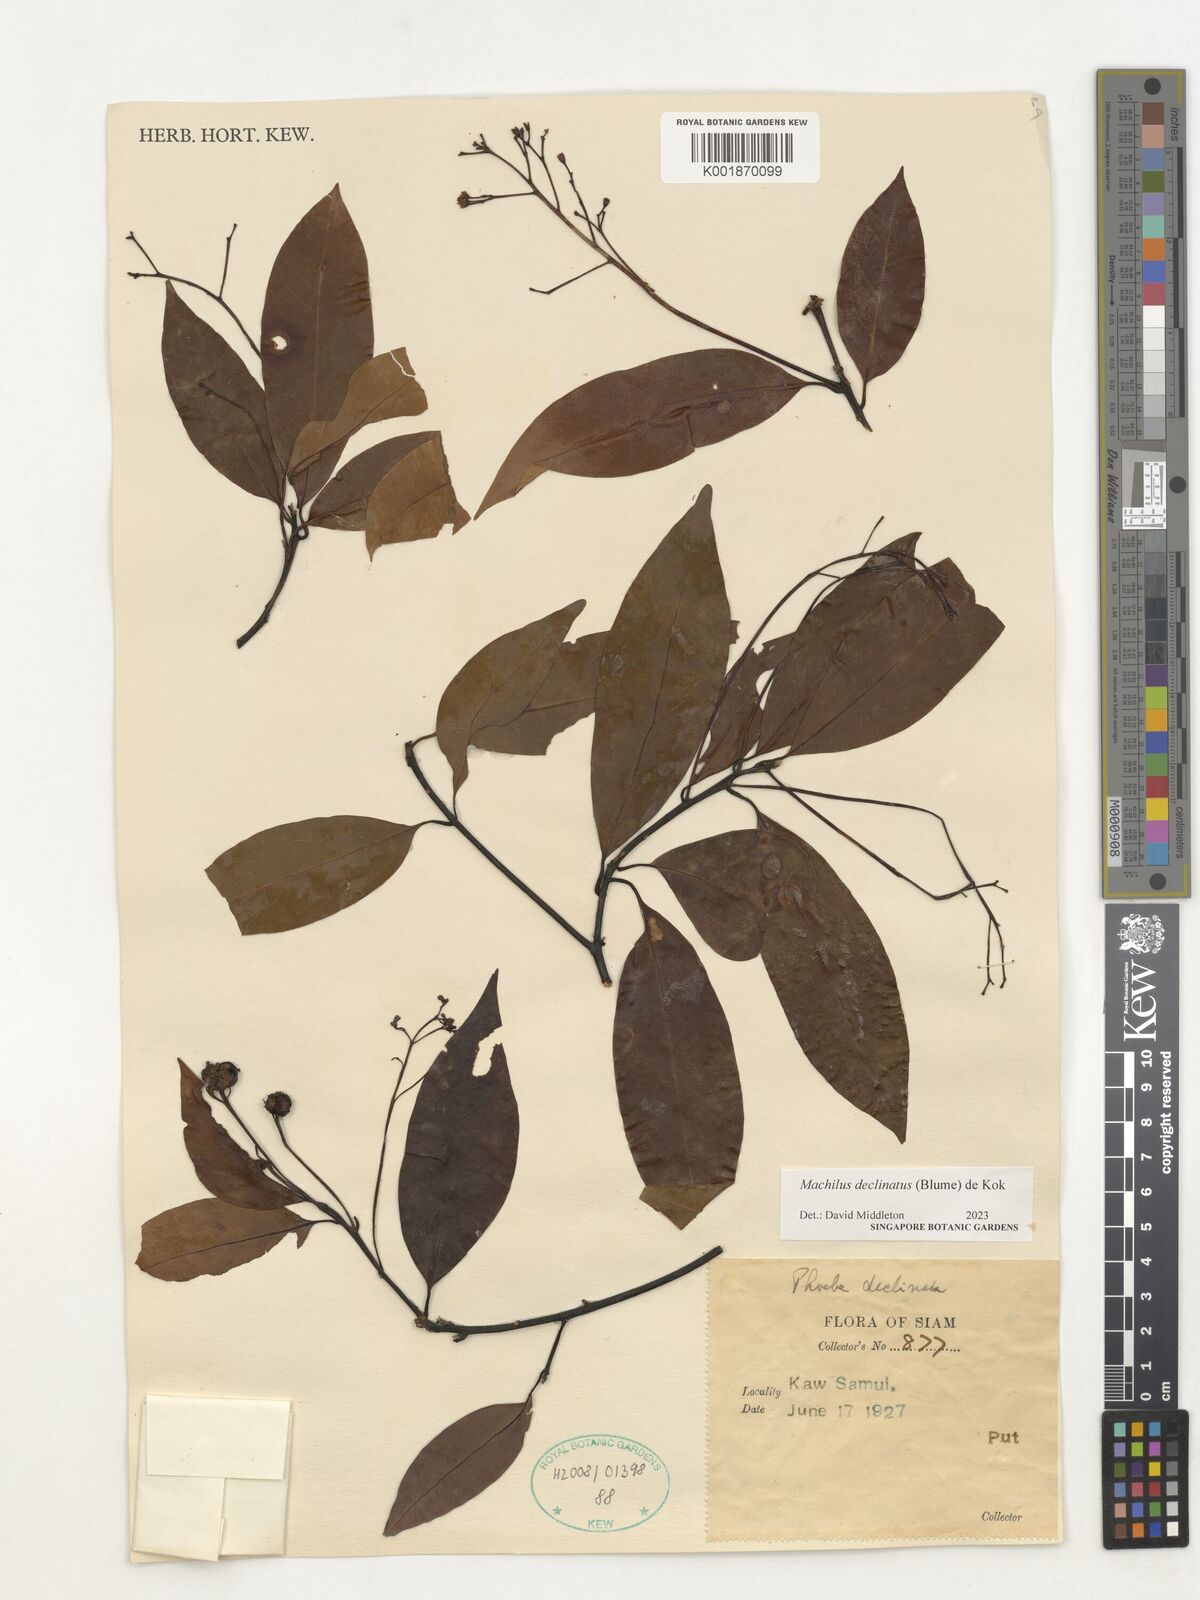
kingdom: Plantae
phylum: Tracheophyta
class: Magnoliopsida
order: Laurales
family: Lauraceae
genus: Machilus
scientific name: Machilus declinata
